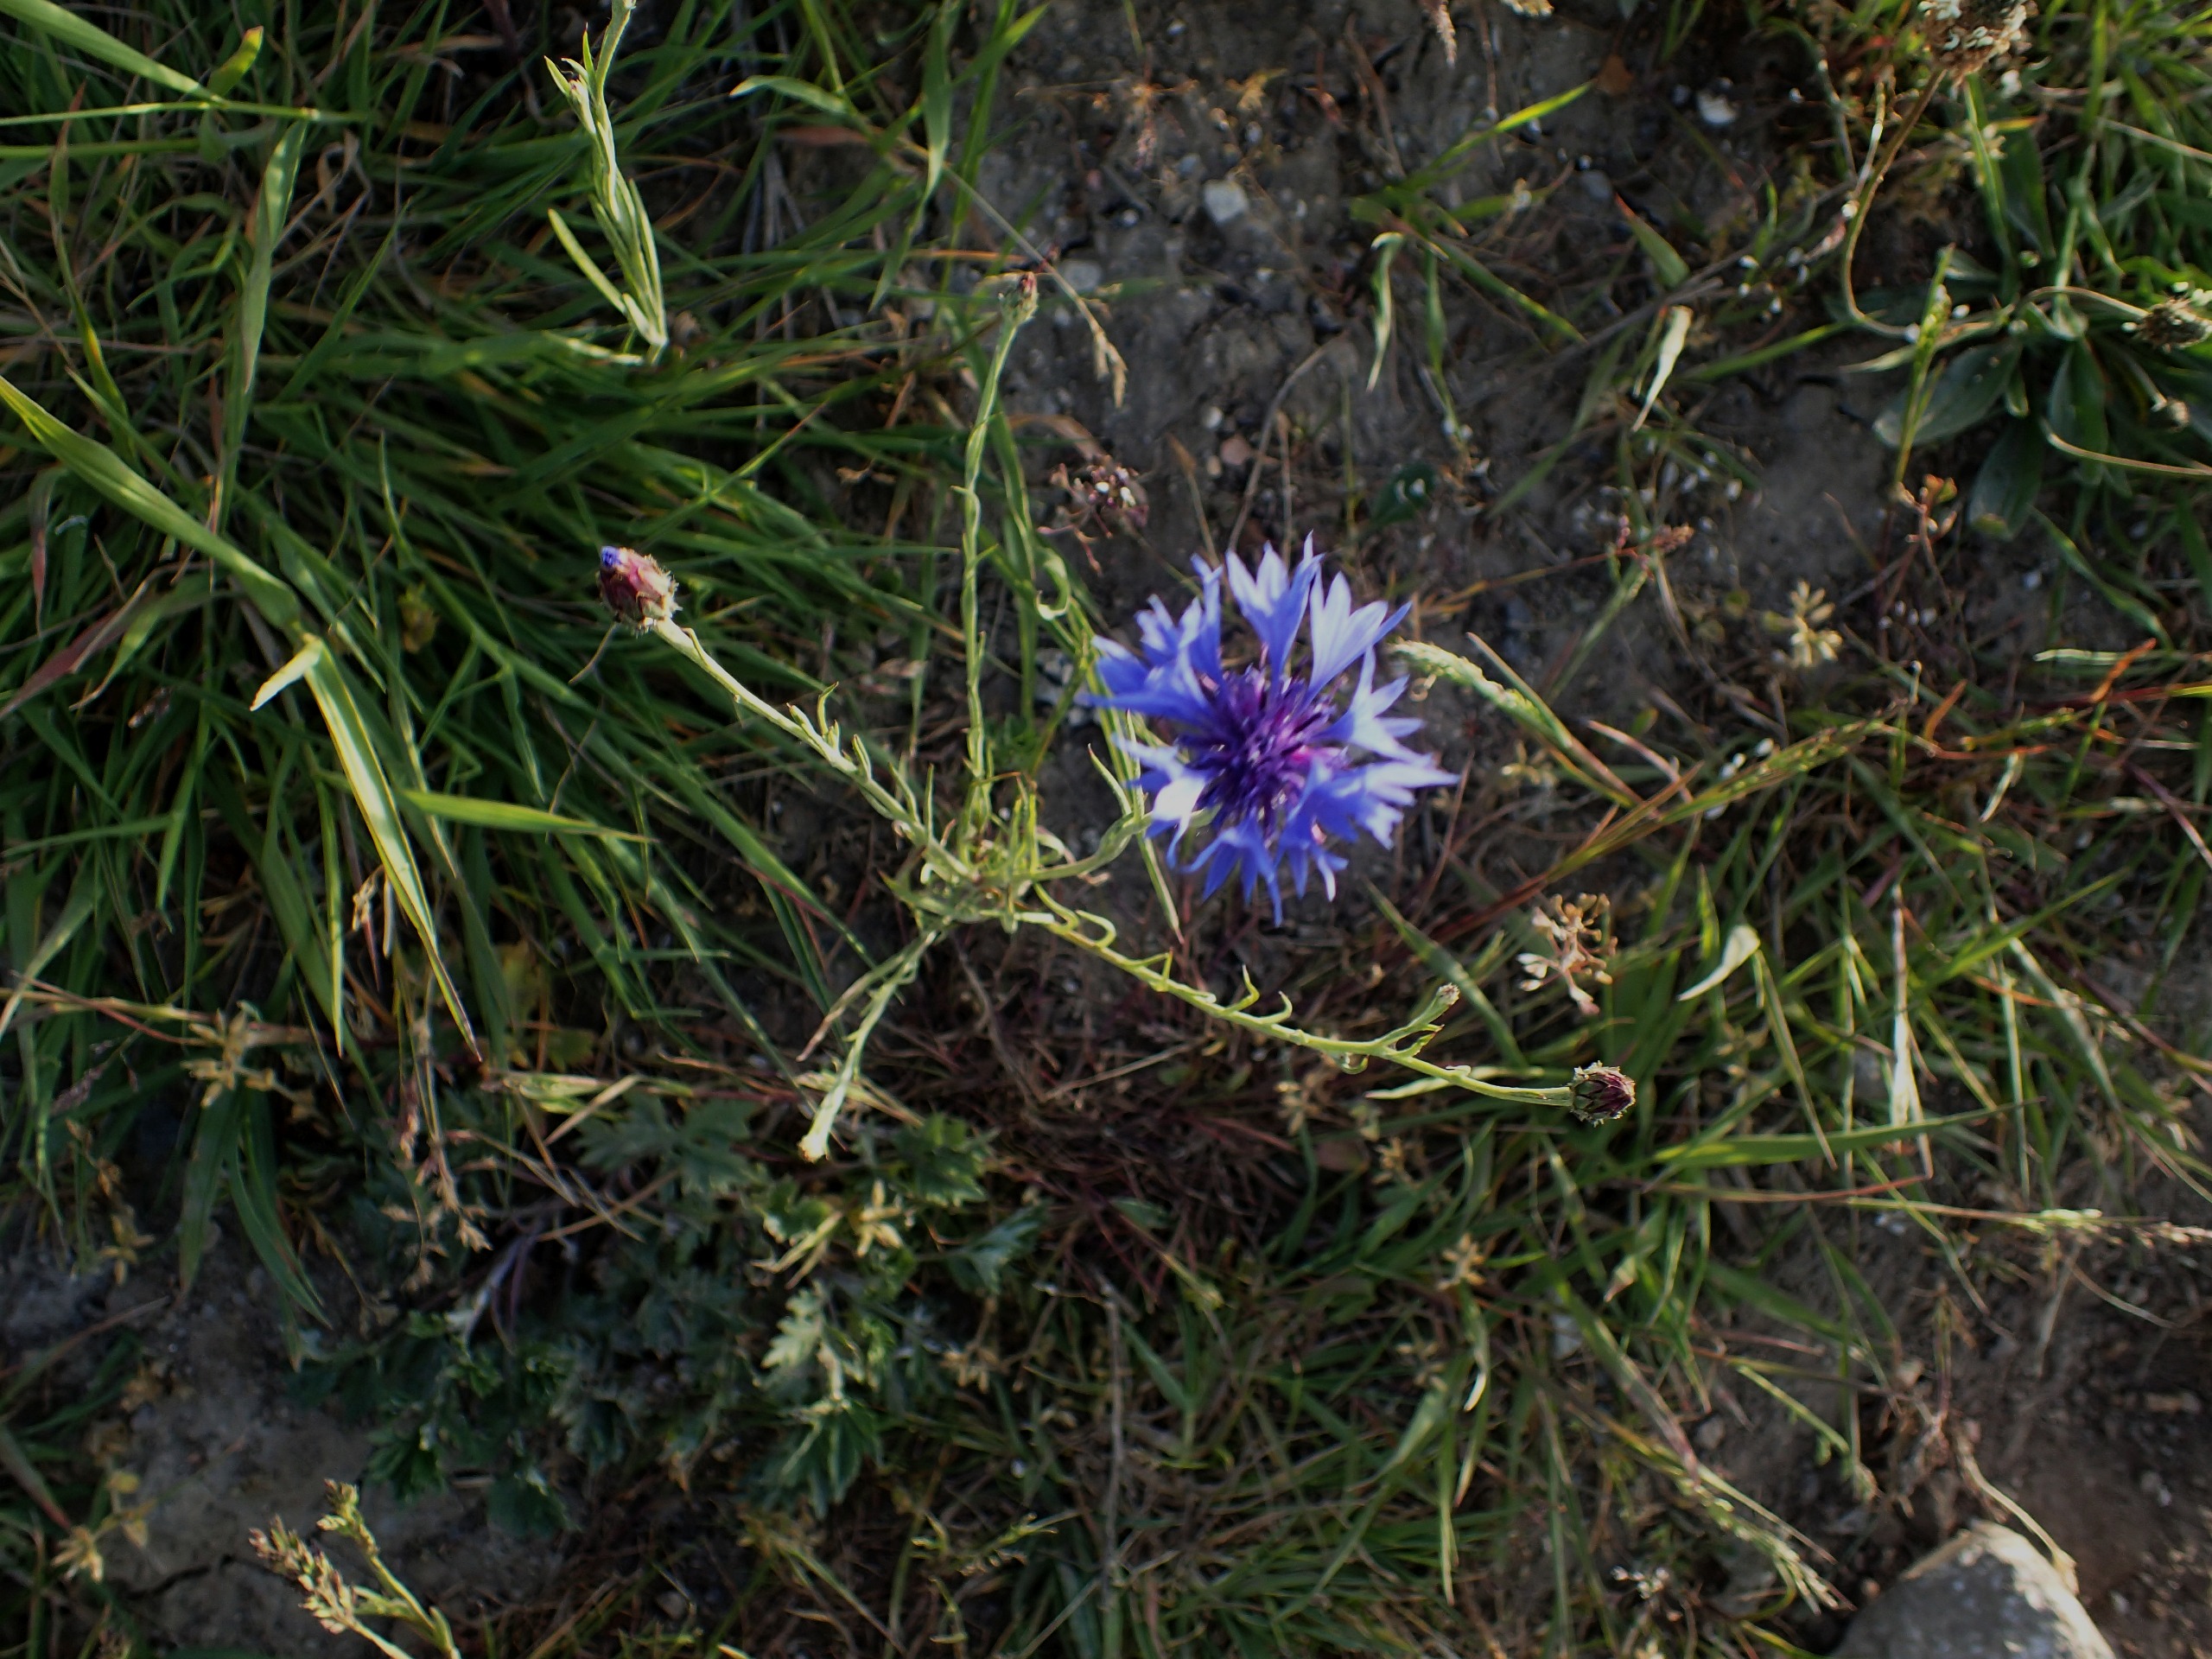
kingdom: Plantae
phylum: Tracheophyta
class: Magnoliopsida
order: Asterales
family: Asteraceae
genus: Centaurea
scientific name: Centaurea cyanus
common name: Kornblomst
